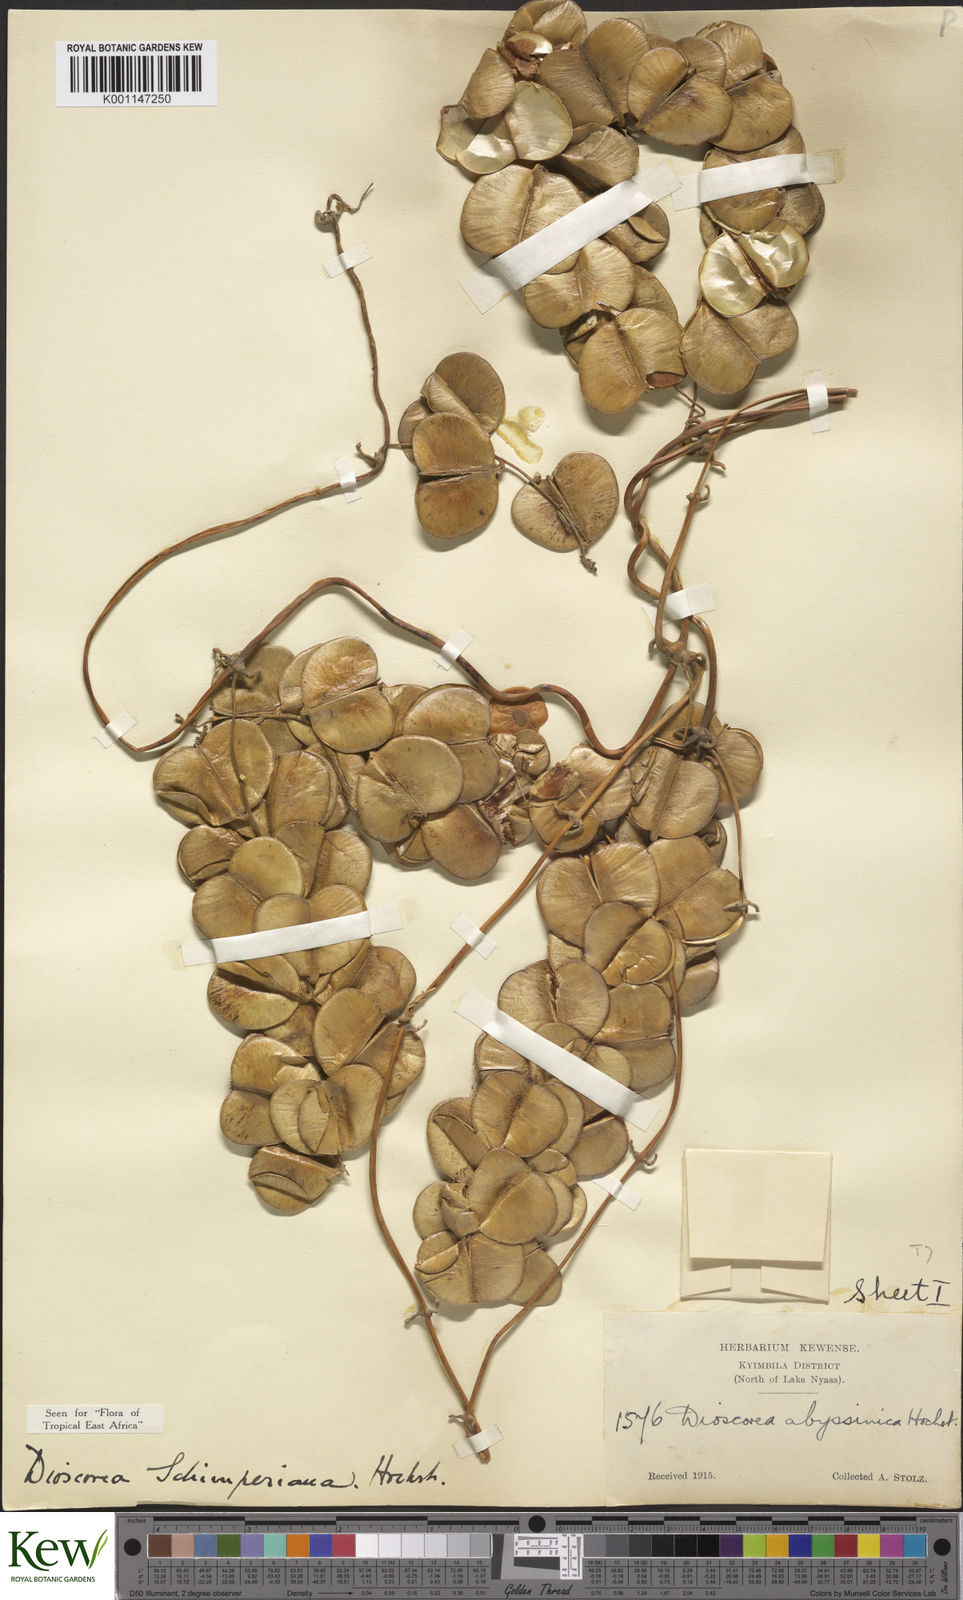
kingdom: Plantae
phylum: Tracheophyta
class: Liliopsida
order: Dioscoreales
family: Dioscoreaceae
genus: Dioscorea
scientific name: Dioscorea schimperiana
